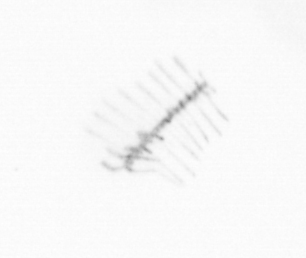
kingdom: Chromista
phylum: Ochrophyta
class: Bacillariophyceae
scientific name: Bacillariophyceae
